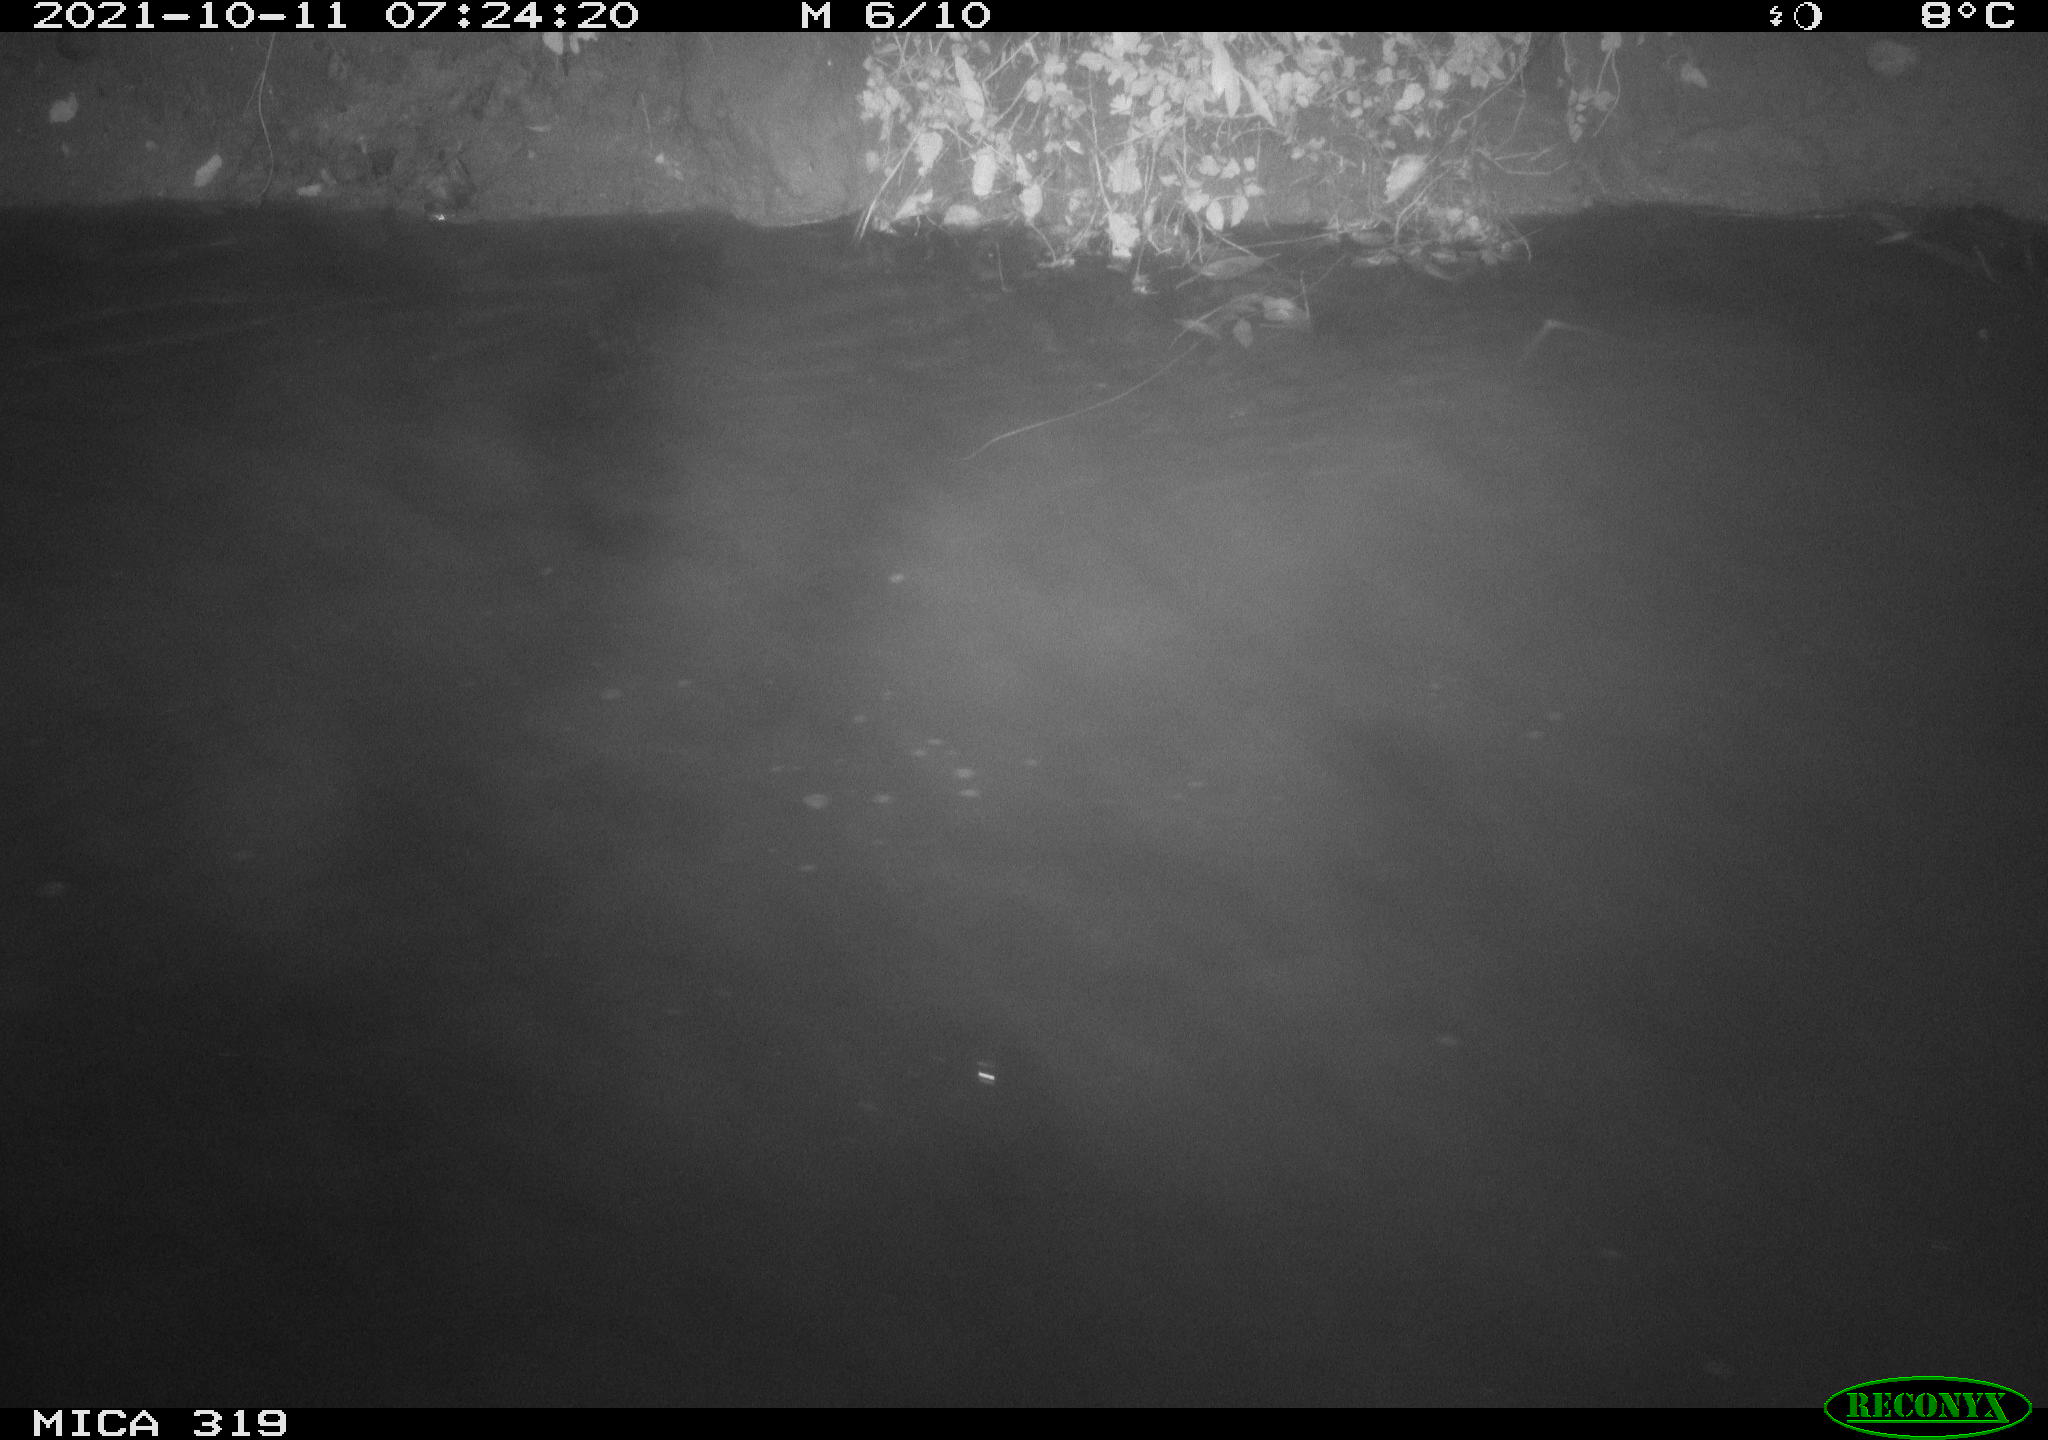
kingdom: Animalia
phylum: Chordata
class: Aves
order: Anseriformes
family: Anatidae
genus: Anas
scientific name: Anas platyrhynchos
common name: Mallard
